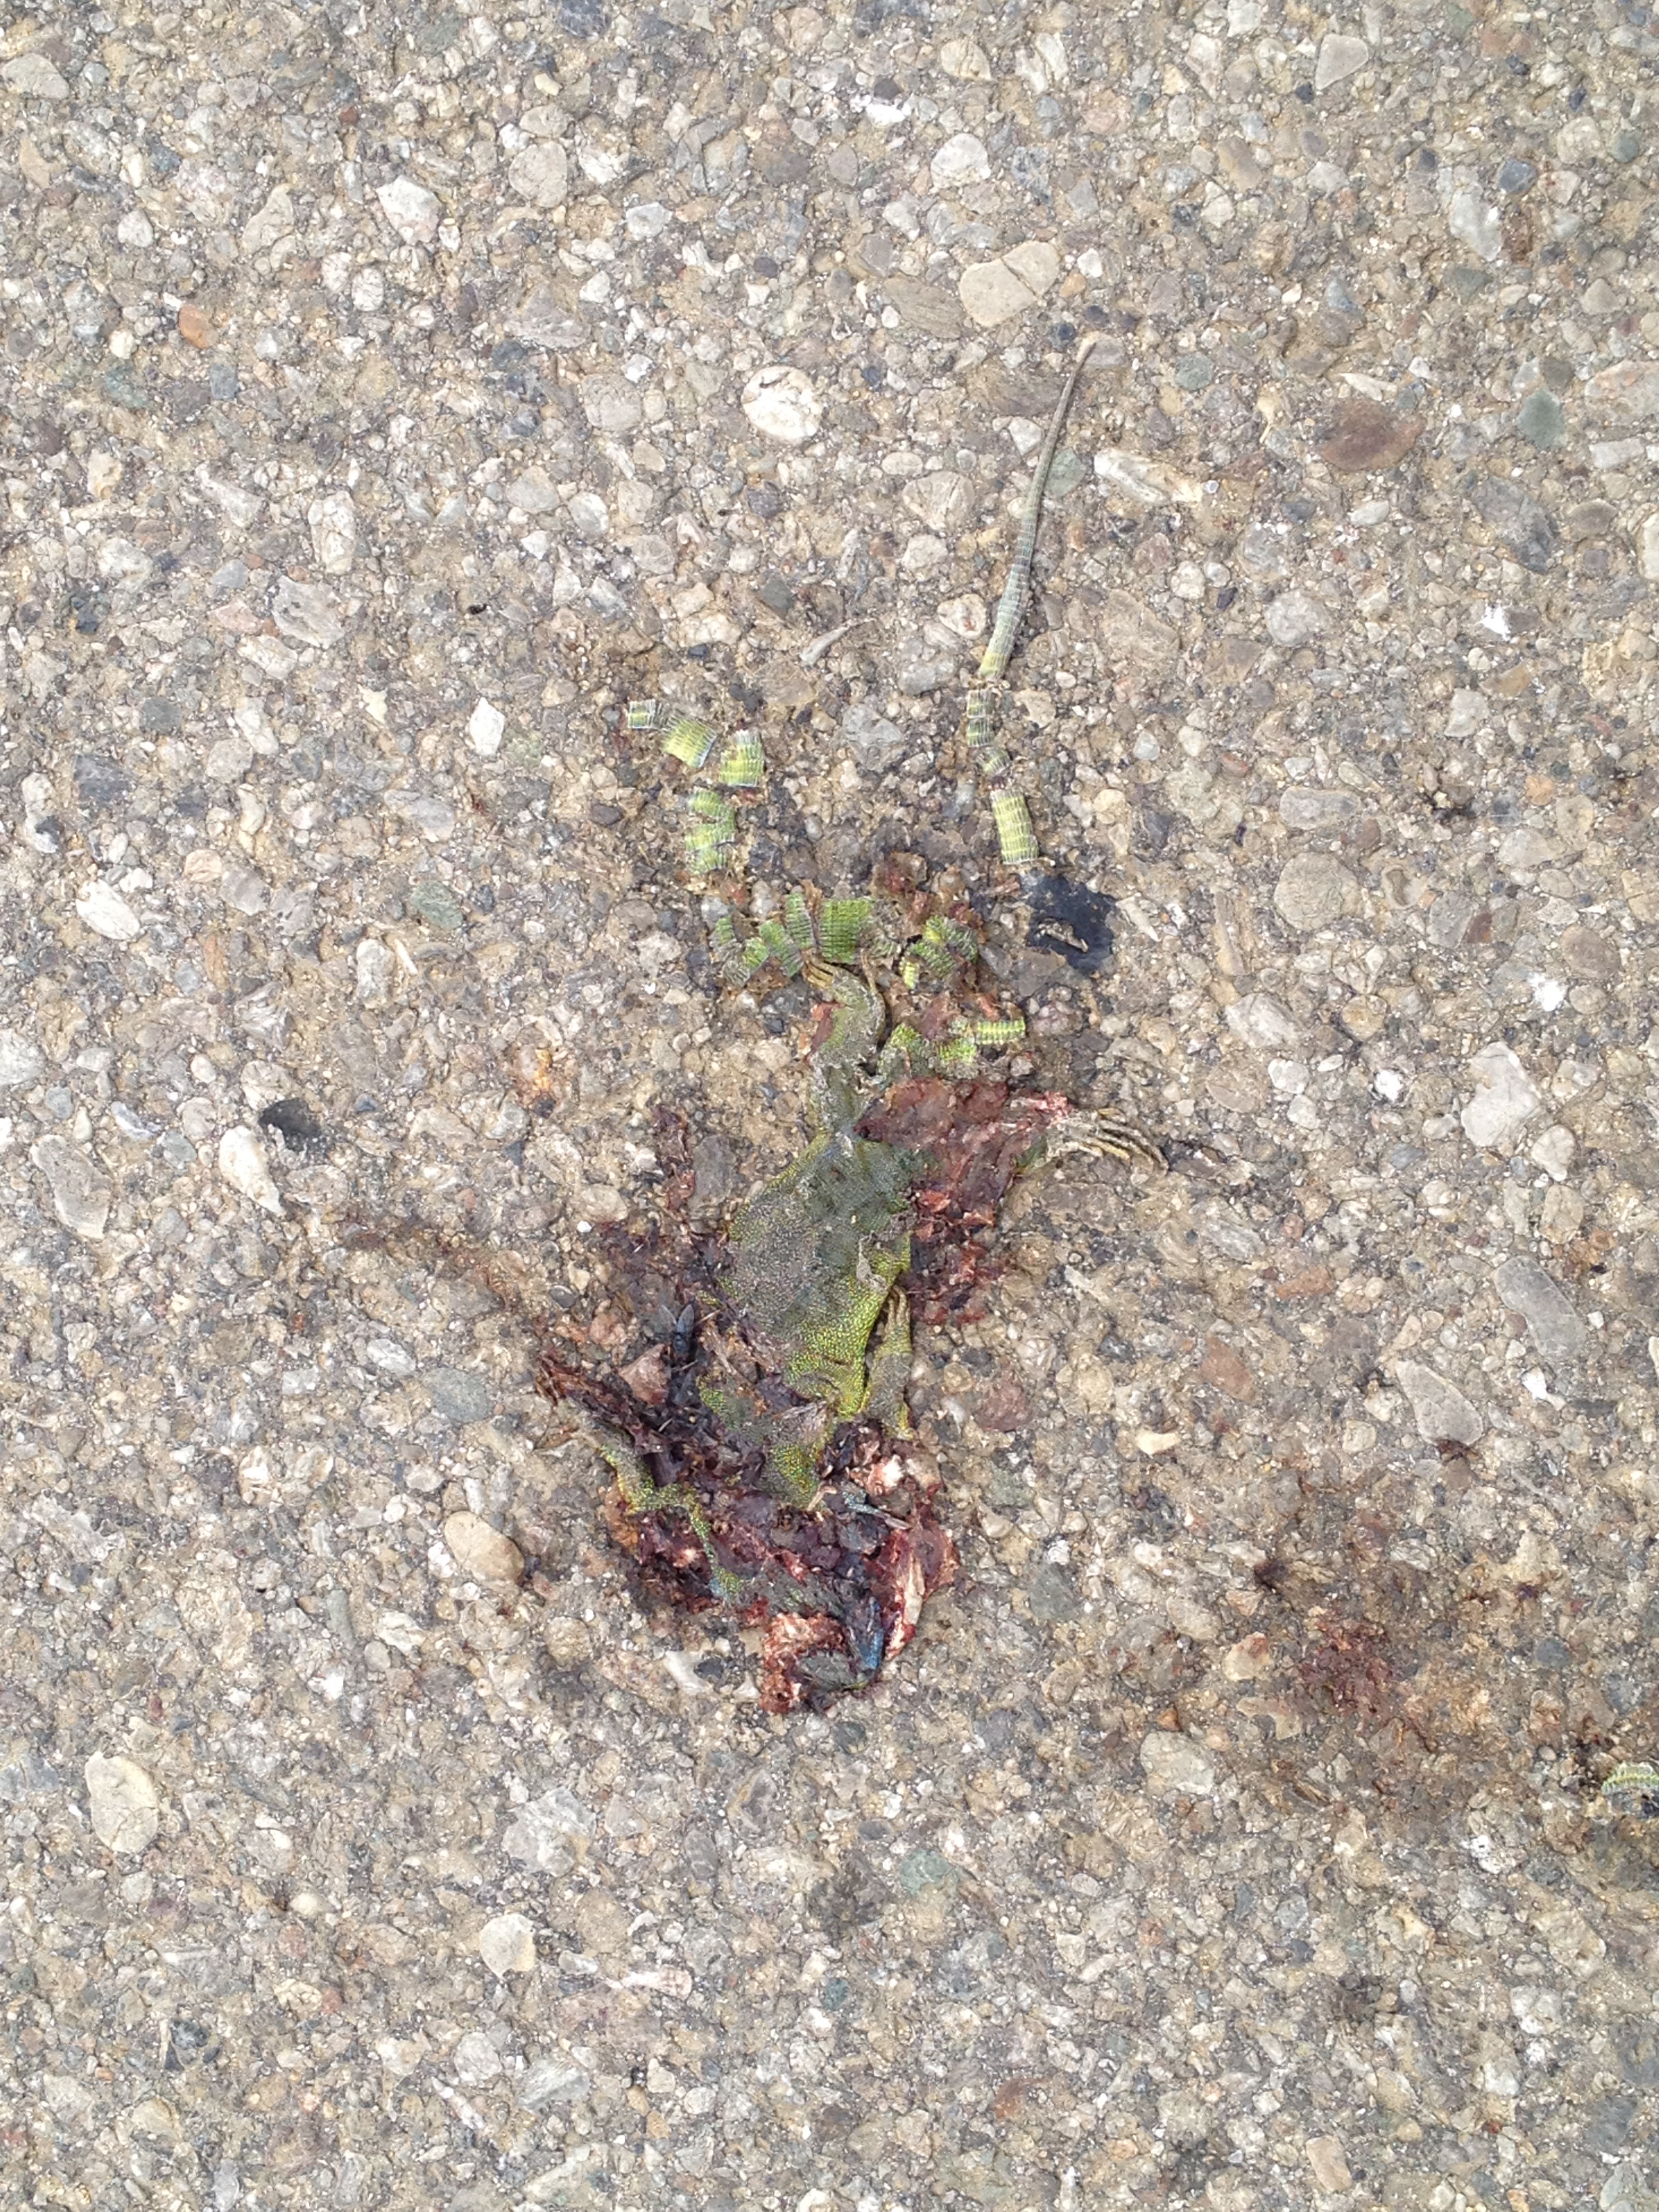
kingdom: Animalia
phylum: Chordata
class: Squamata
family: Lacertidae
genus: Lacerta
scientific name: Lacerta viridis
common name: European green lizard
